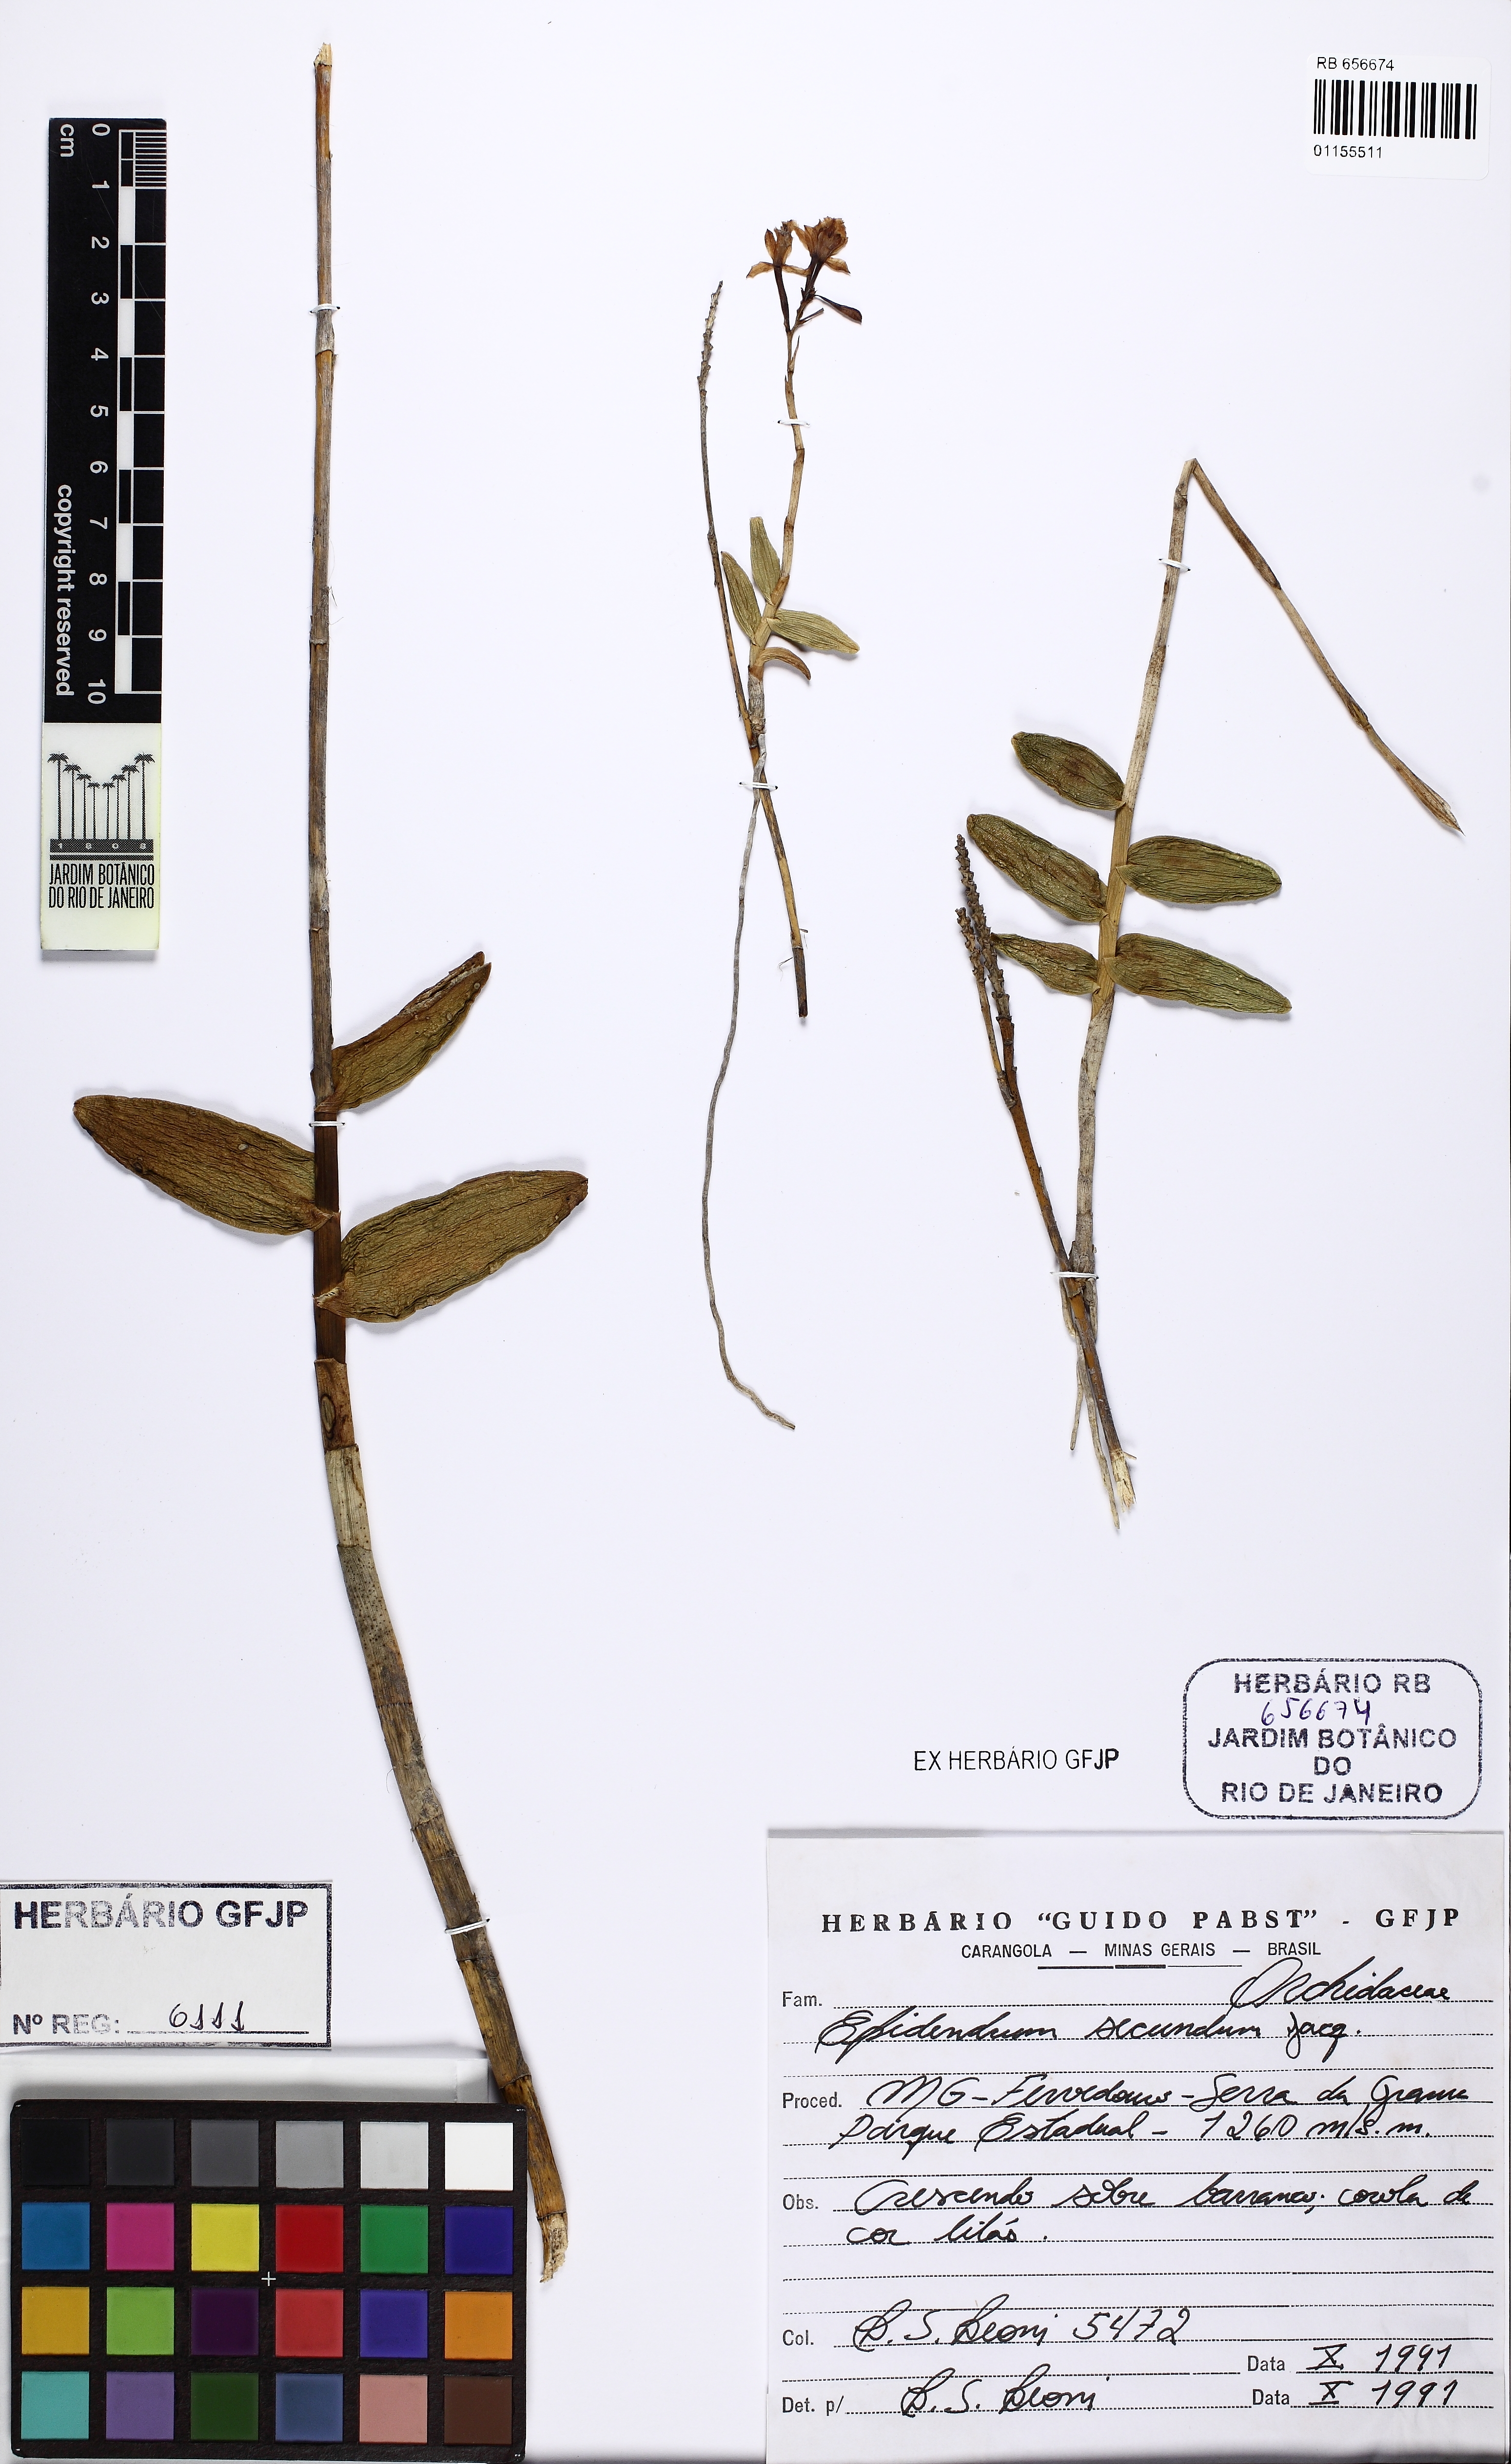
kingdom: Plantae
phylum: Tracheophyta
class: Liliopsida
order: Asparagales
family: Orchidaceae
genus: Epidendrum
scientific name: Epidendrum secundum
